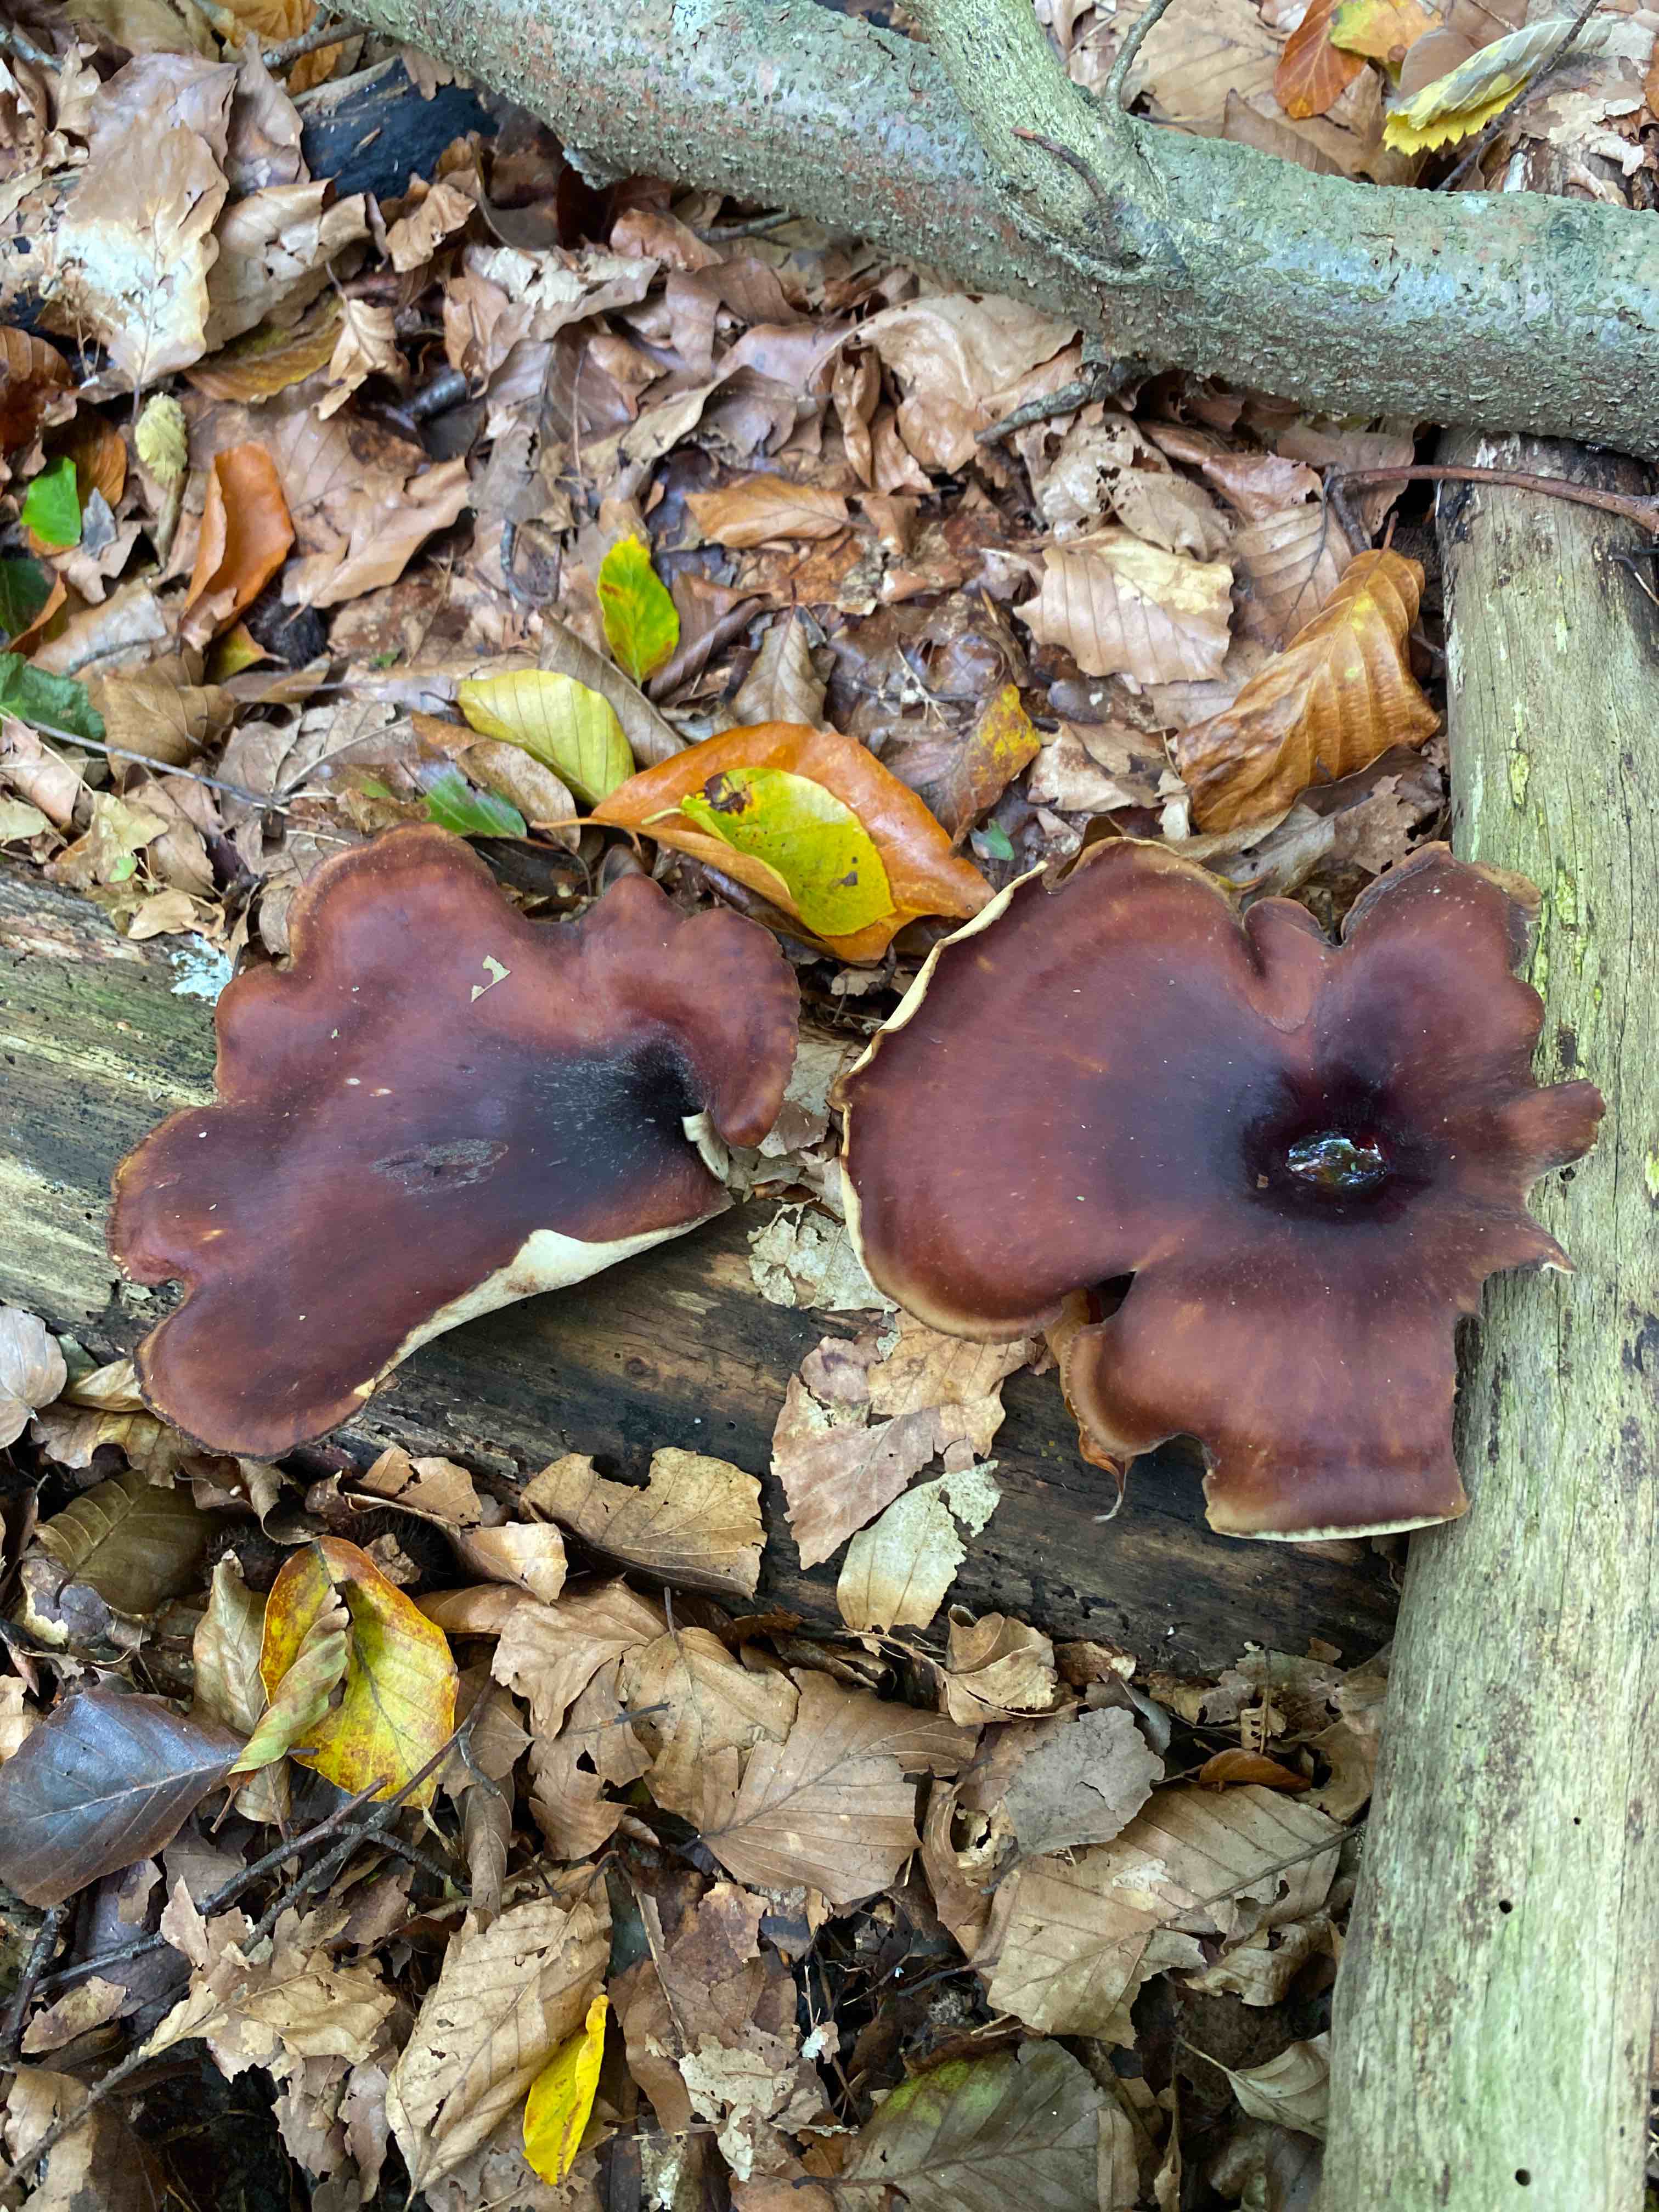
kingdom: Fungi
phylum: Basidiomycota
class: Agaricomycetes
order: Polyporales
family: Polyporaceae
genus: Picipes
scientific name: Picipes badius
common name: kastaniebrun stilkporesvamp
